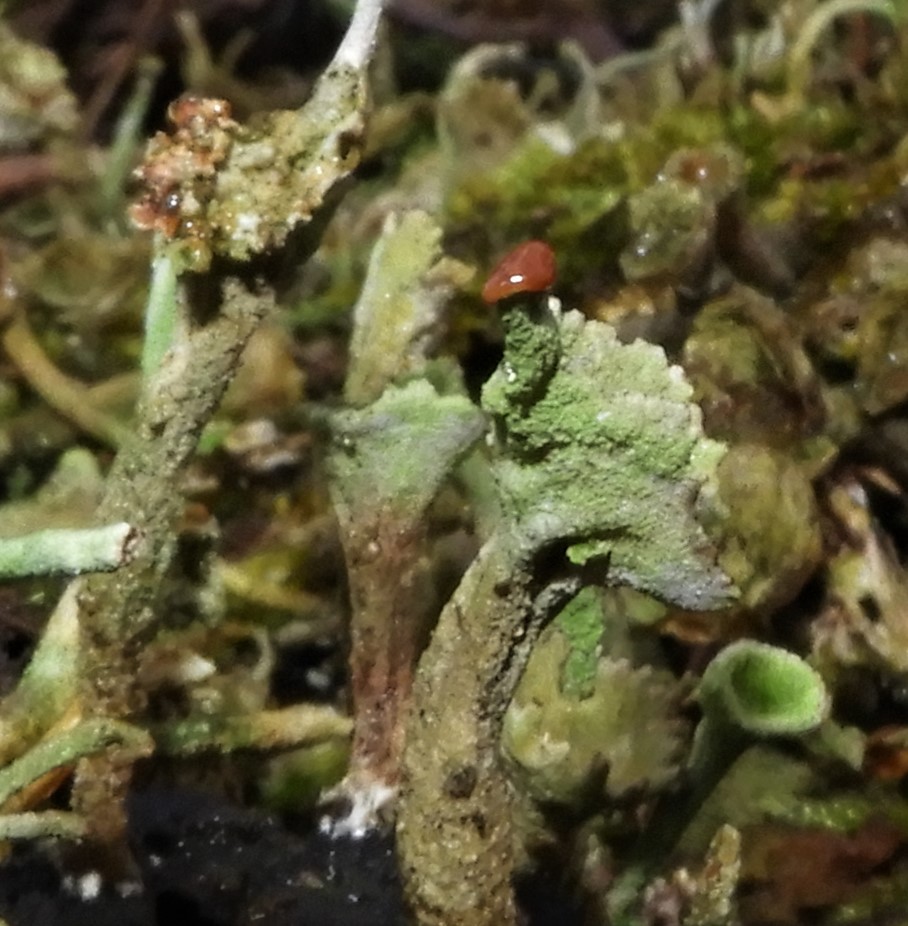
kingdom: Fungi
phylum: Ascomycota
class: Lecanoromycetes
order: Lecanorales
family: Cladoniaceae
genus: Cladonia
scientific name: Cladonia
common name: brungrøn bægerlav
